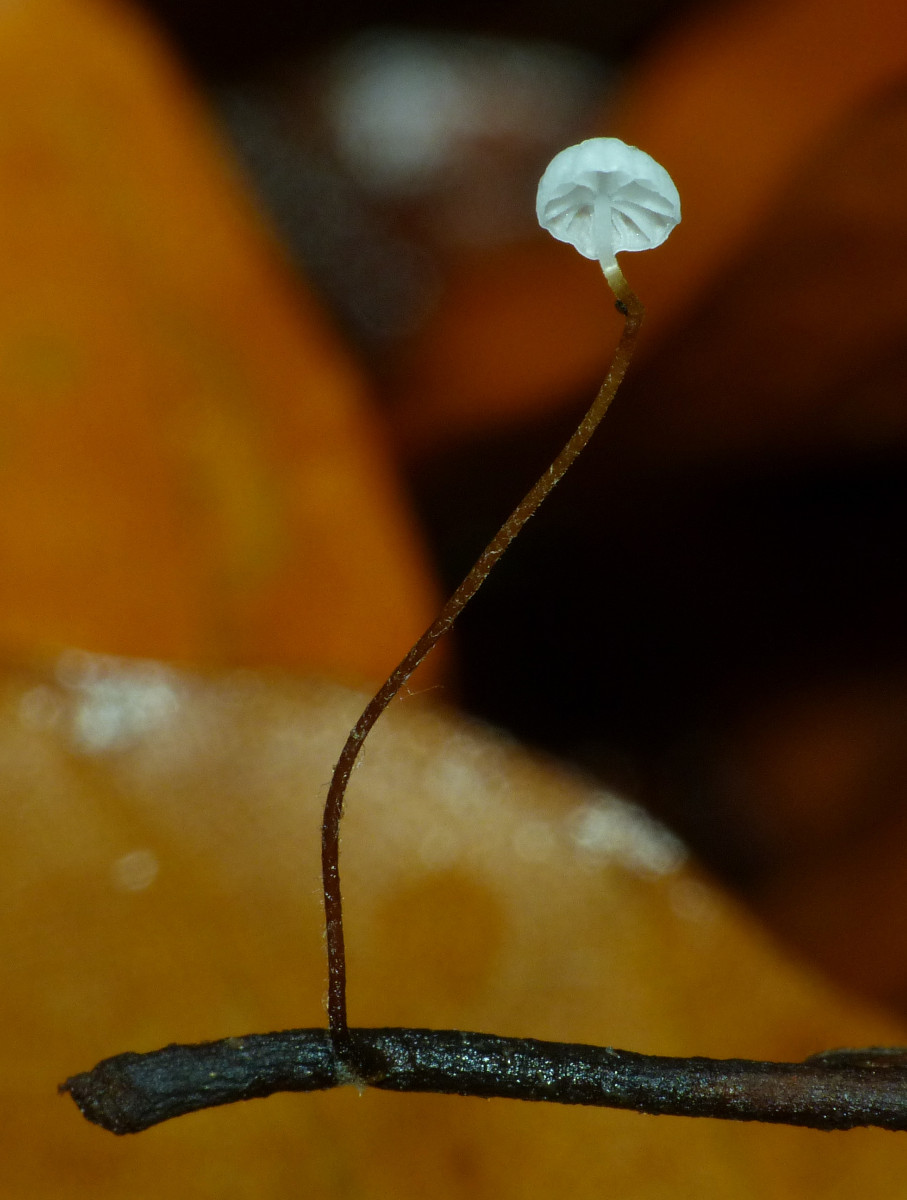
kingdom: Fungi
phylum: Basidiomycota
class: Agaricomycetes
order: Agaricales
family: Physalacriaceae
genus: Rhizomarasmius
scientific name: Rhizomarasmius setosus
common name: bøgeblads-bruskhat
